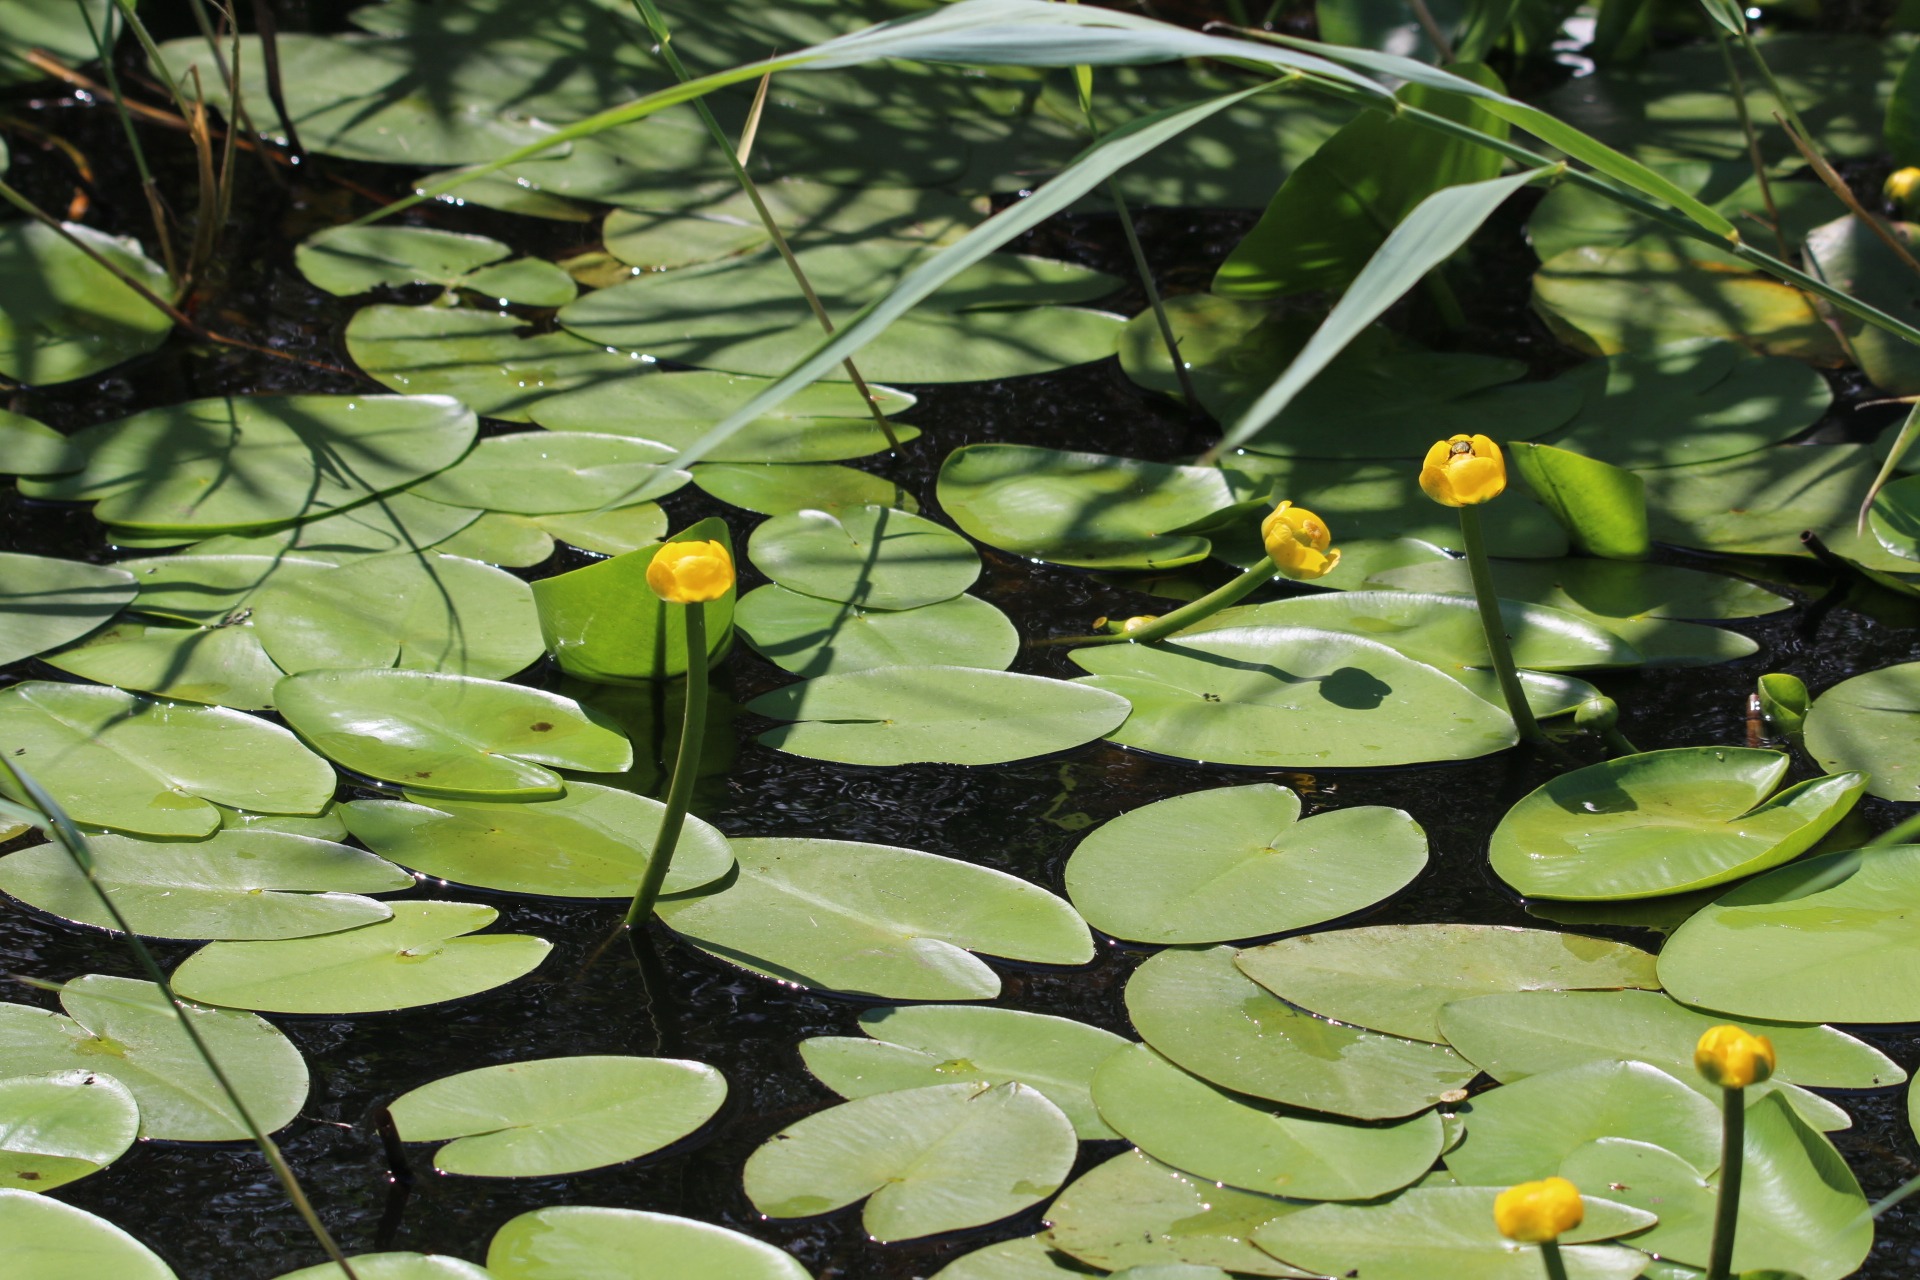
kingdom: Plantae
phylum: Tracheophyta
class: Magnoliopsida
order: Nymphaeales
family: Nymphaeaceae
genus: Nuphar
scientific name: Nuphar lutea
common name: Gul åkande
